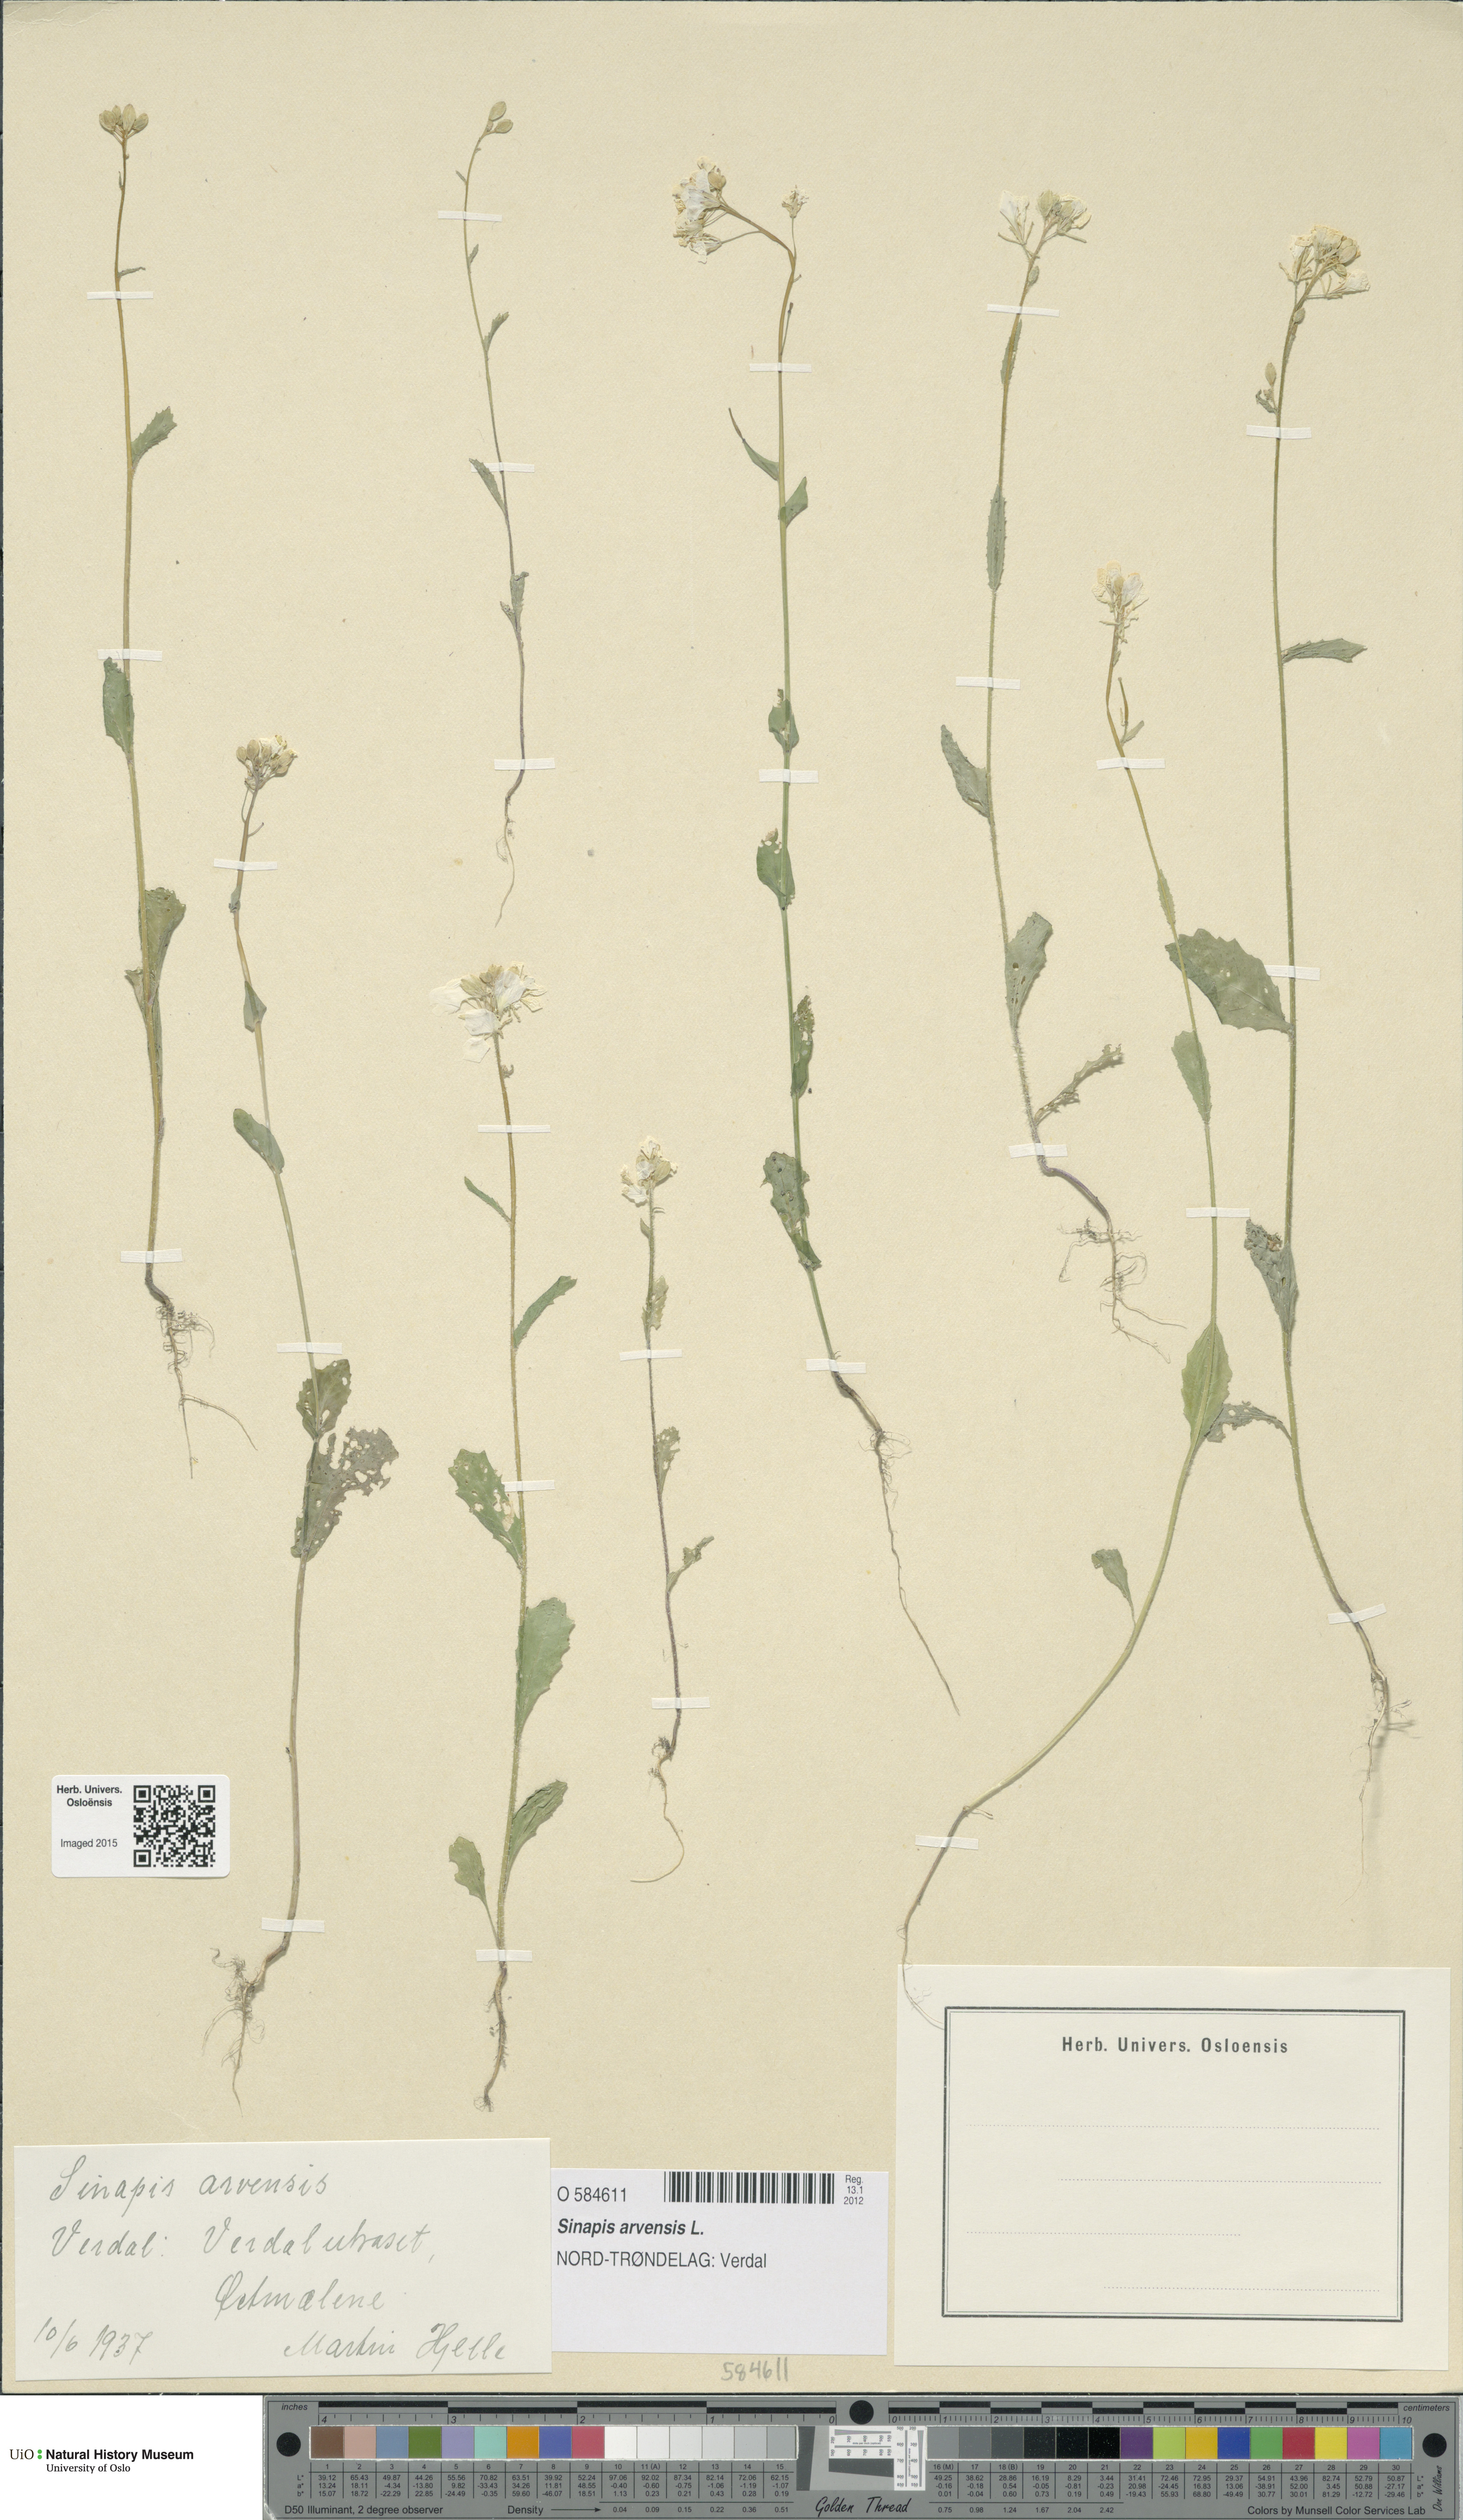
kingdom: Plantae
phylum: Tracheophyta
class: Magnoliopsida
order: Brassicales
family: Brassicaceae
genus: Sinapis
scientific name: Sinapis arvensis
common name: Charlock
